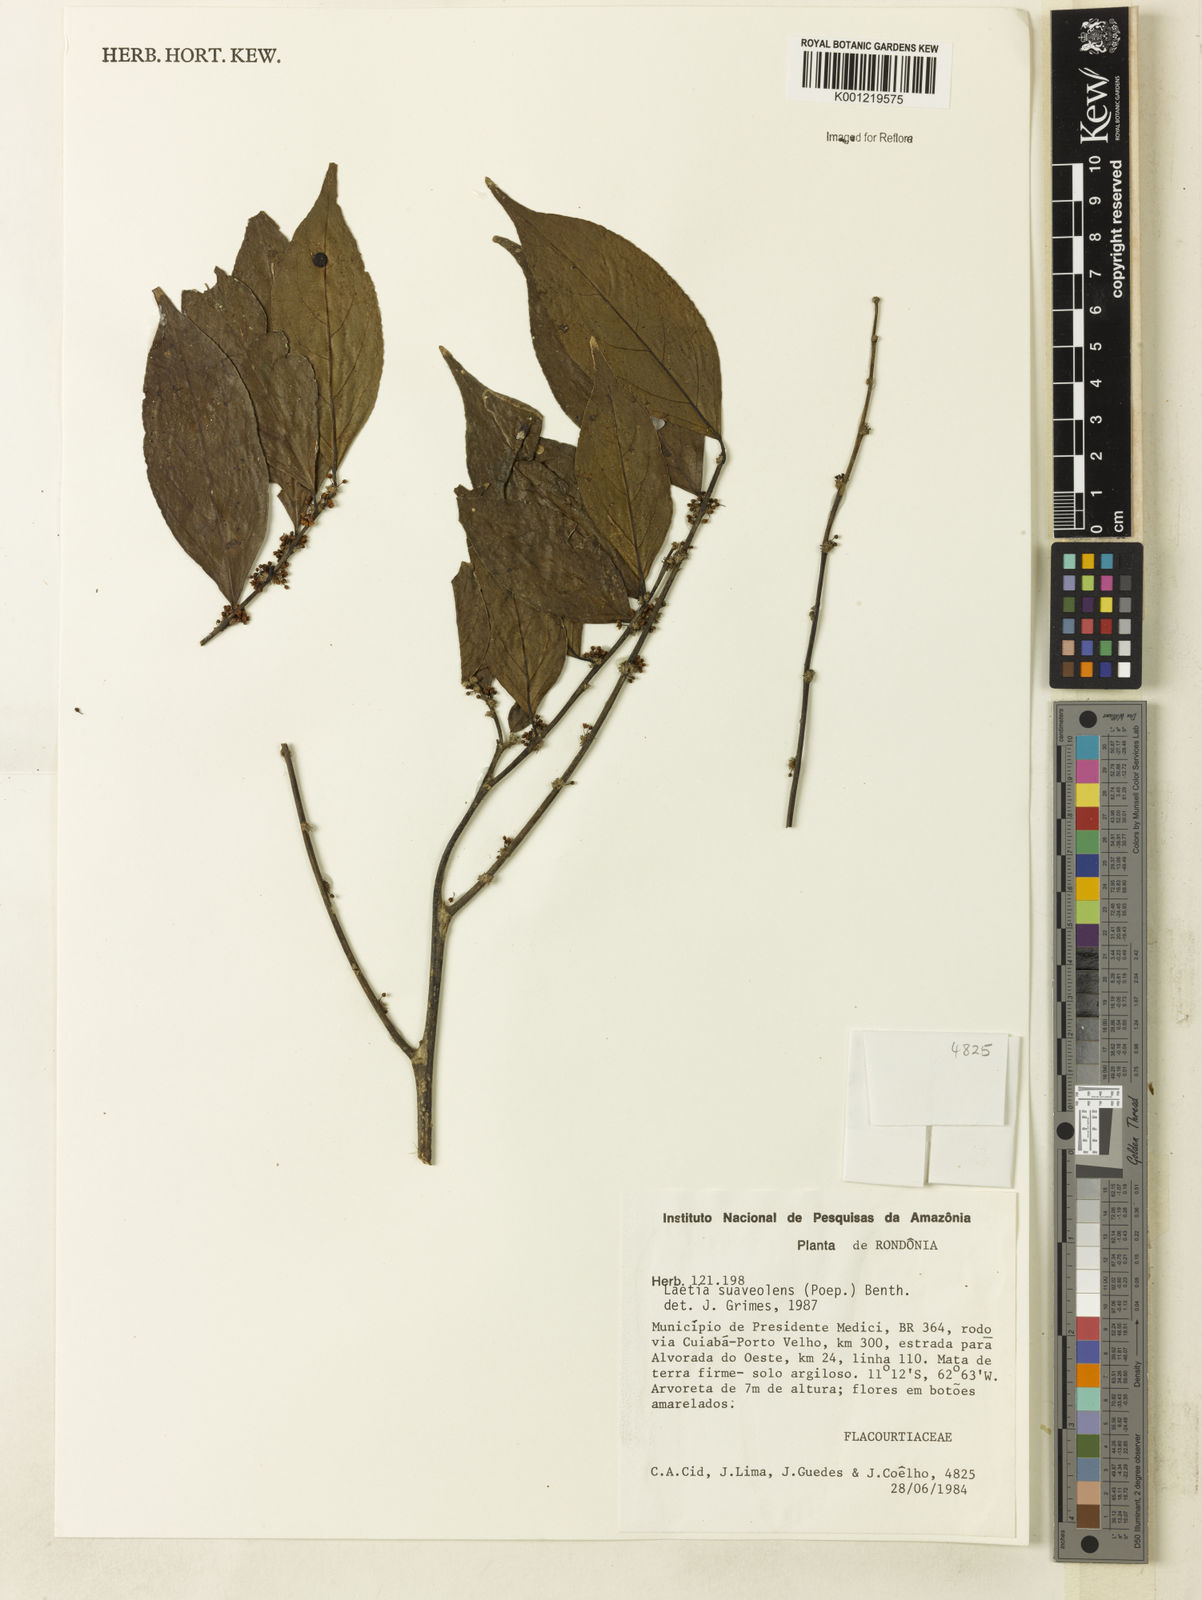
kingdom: Plantae
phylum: Tracheophyta
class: Magnoliopsida
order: Malpighiales
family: Salicaceae
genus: Casearia
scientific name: Casearia suaveolens
